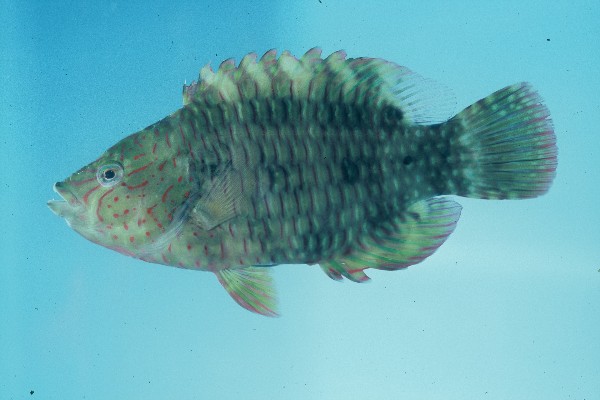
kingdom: Animalia
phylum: Chordata
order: Perciformes
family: Labridae
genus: Cheilinus
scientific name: Cheilinus trilobatus
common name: Tripletail maori wrasse
